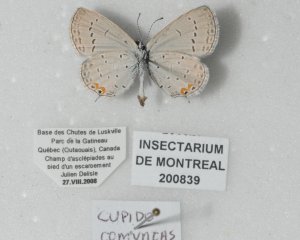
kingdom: Animalia
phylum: Arthropoda
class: Insecta
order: Lepidoptera
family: Lycaenidae
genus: Elkalyce
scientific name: Elkalyce comyntas
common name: Eastern Tailed-Blue
